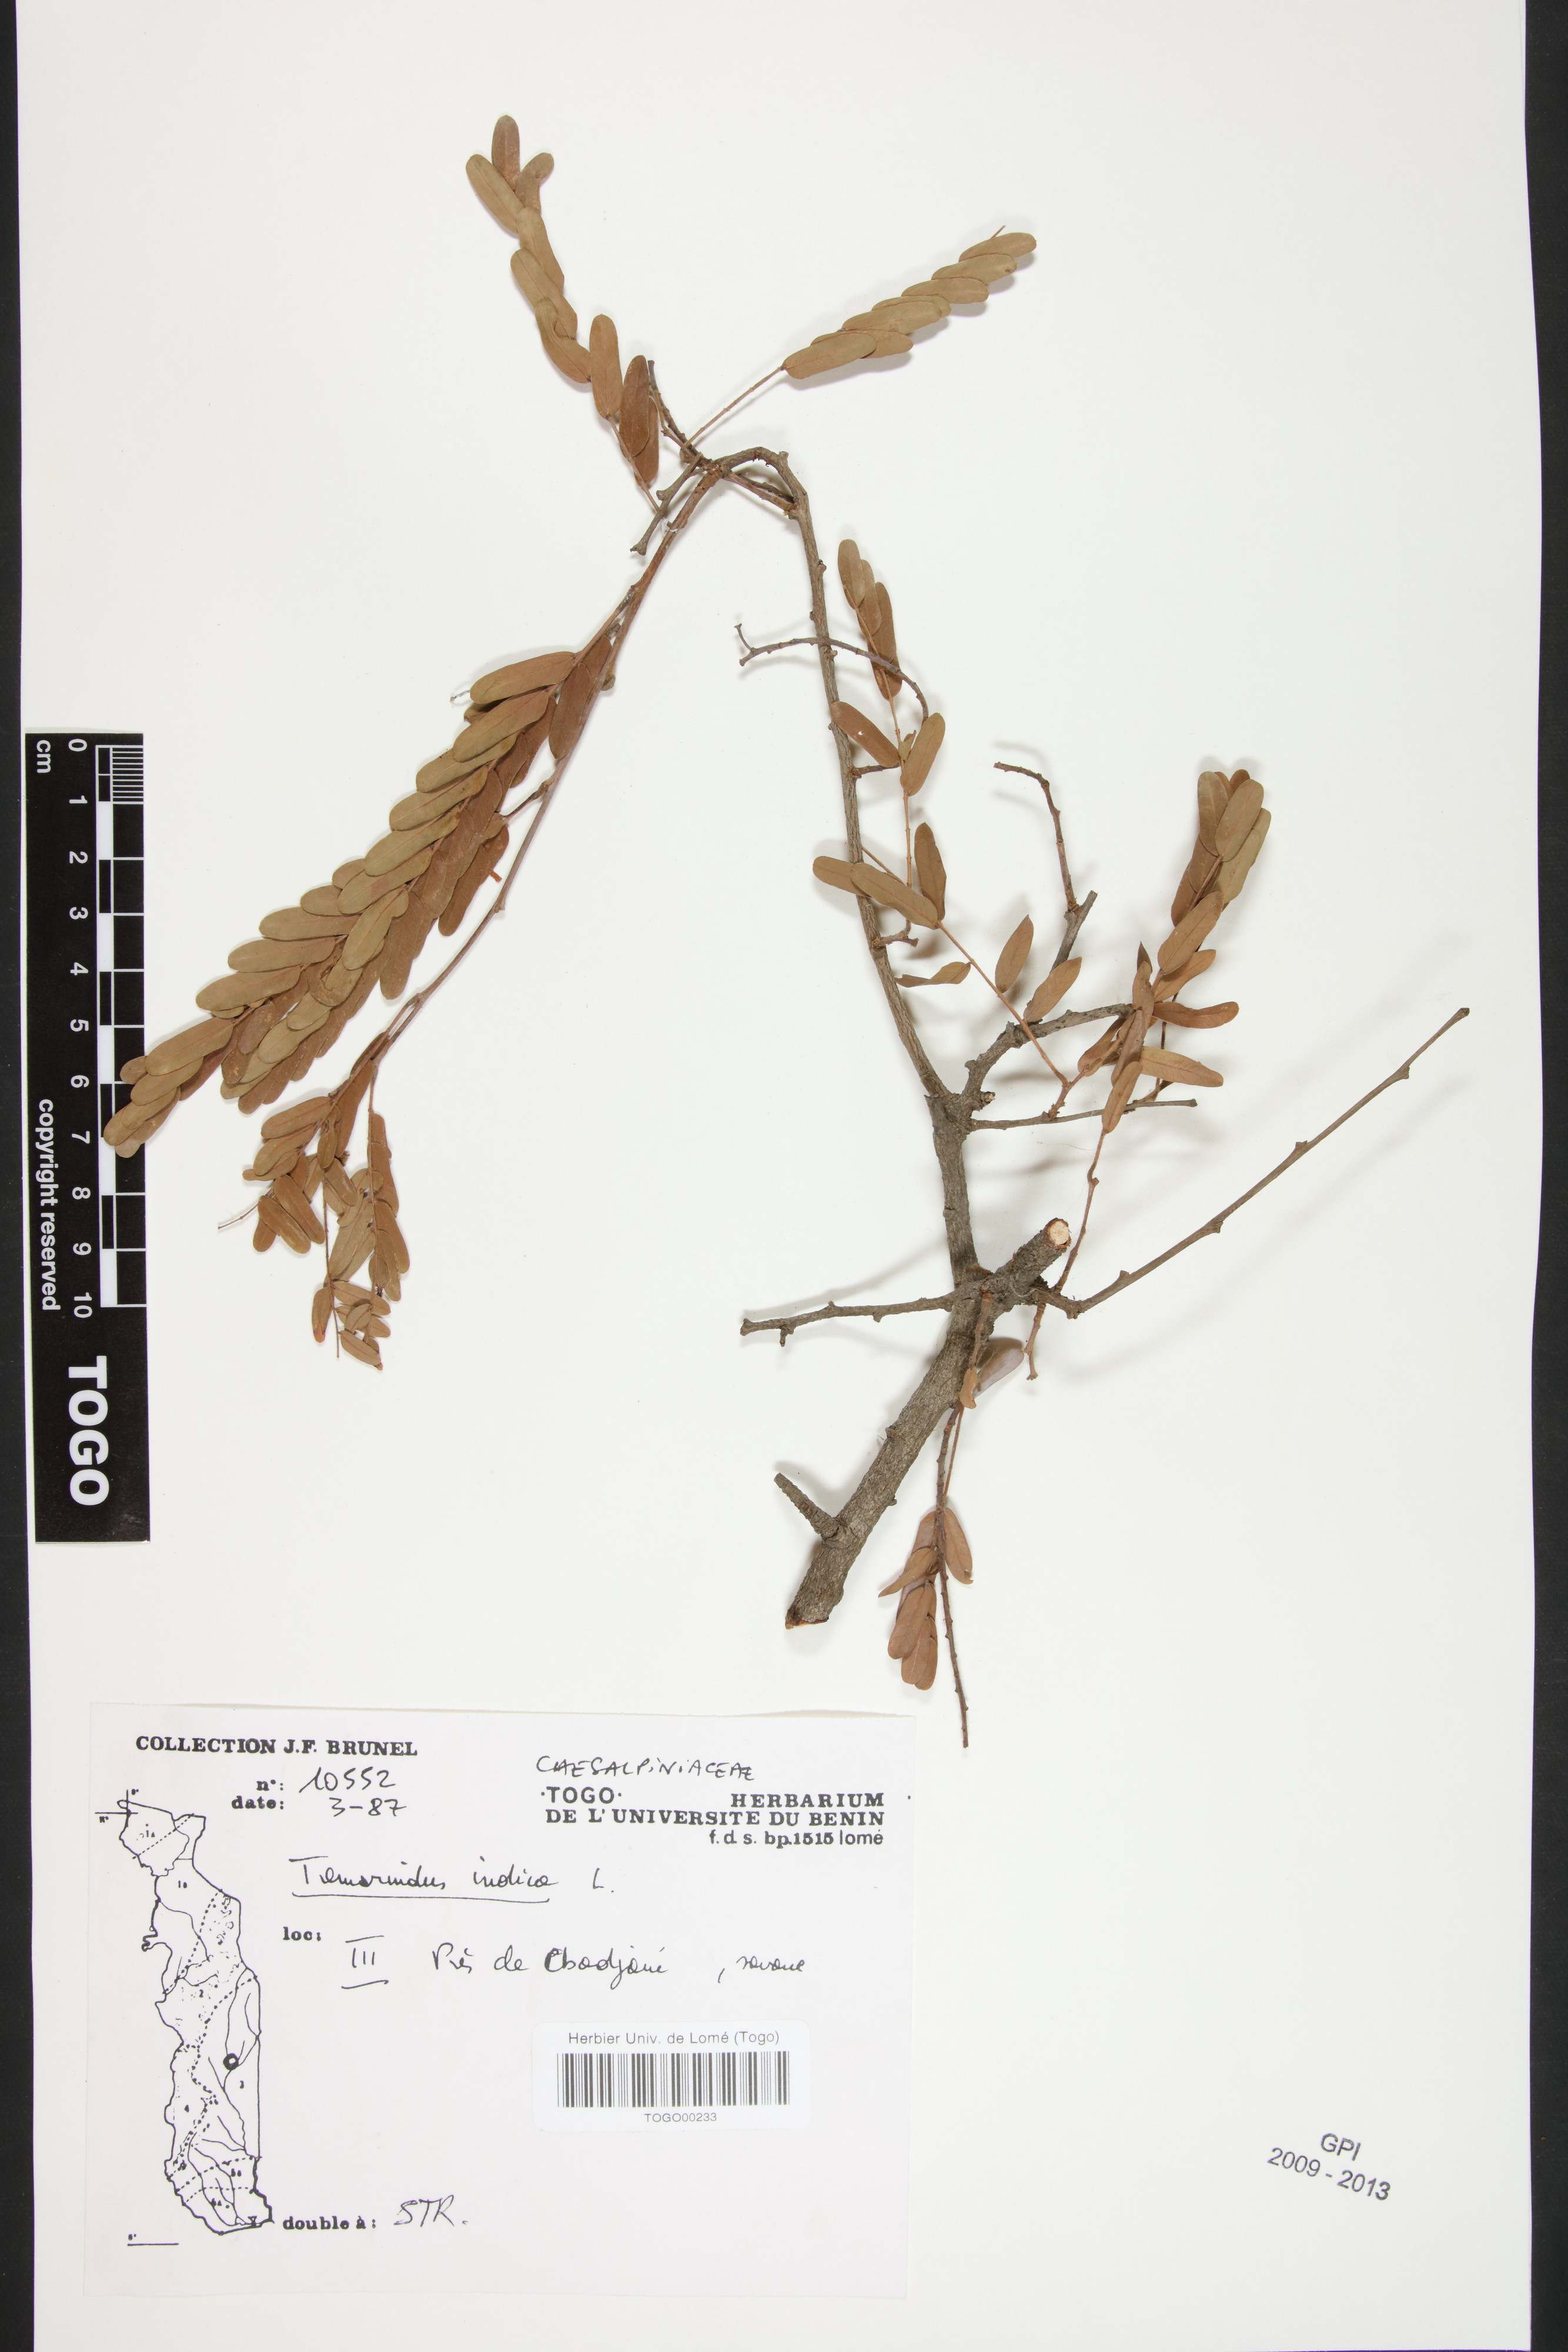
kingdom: Plantae
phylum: Tracheophyta
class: Magnoliopsida
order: Fabales
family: Fabaceae
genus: Tamarindus
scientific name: Tamarindus indica
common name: Tamarind
